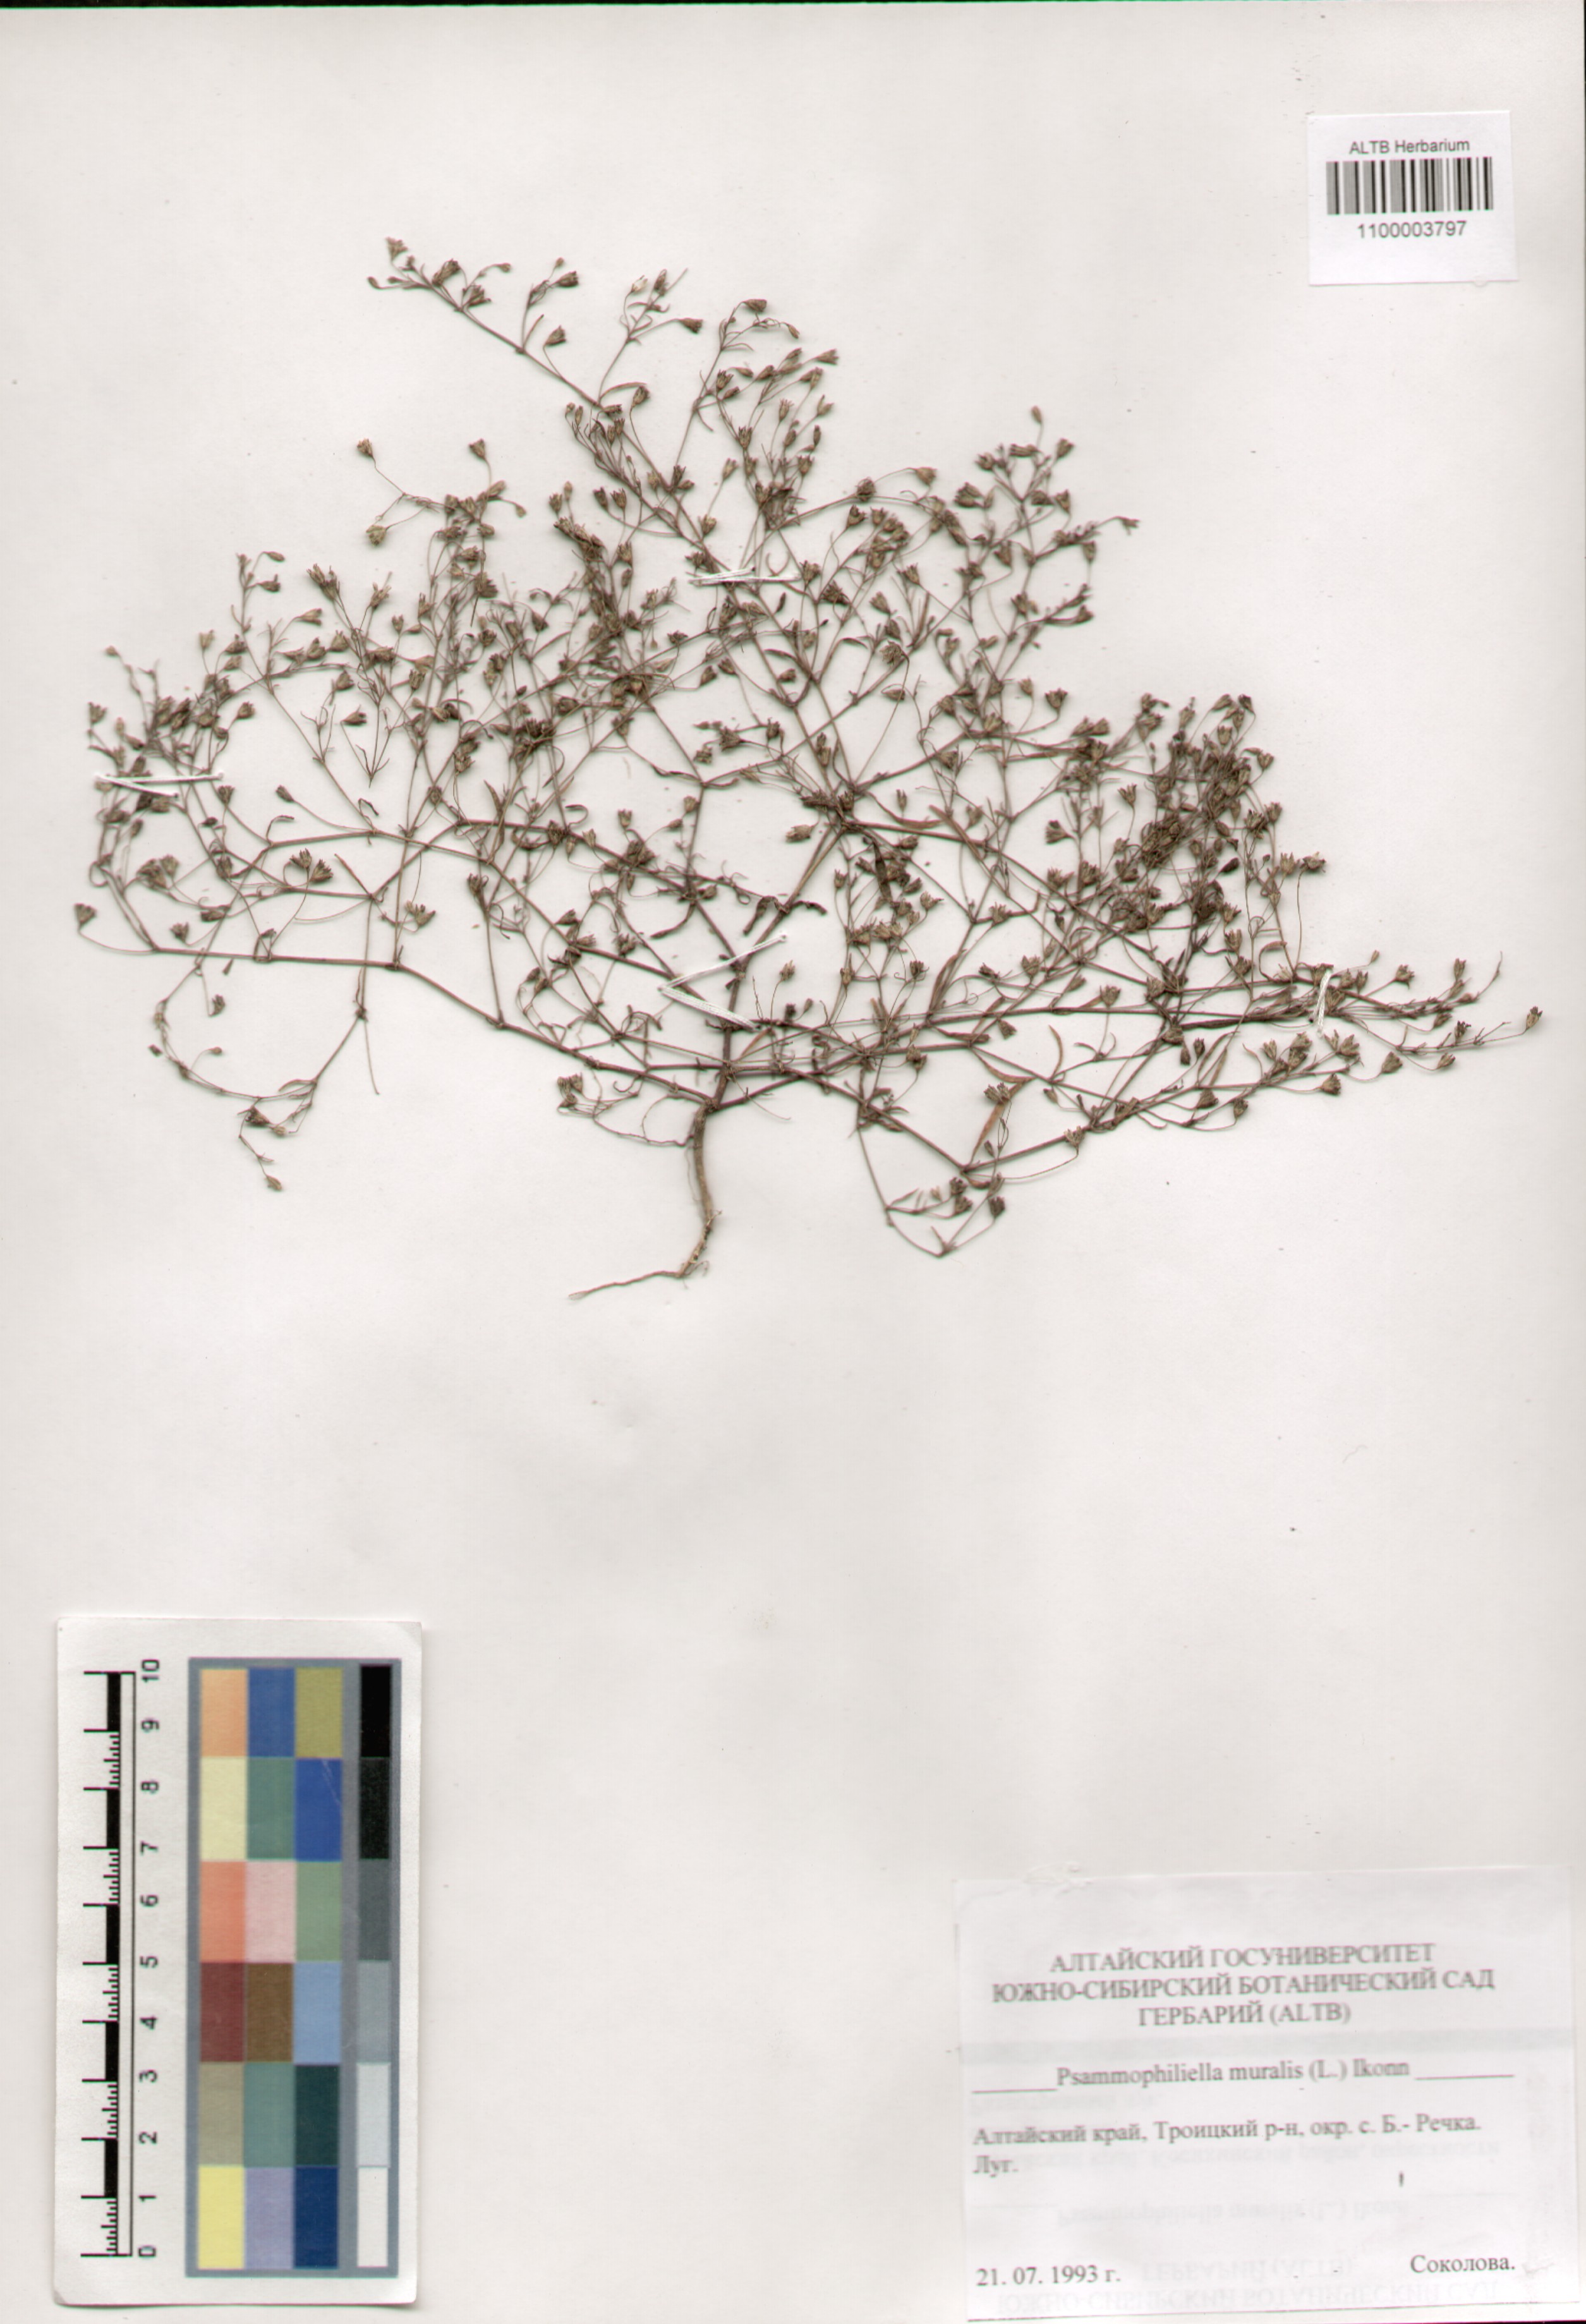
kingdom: Plantae
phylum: Tracheophyta
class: Magnoliopsida
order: Caryophyllales
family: Caryophyllaceae
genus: Psammophiliella
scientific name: Psammophiliella muralis
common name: Cushion baby's-breath
